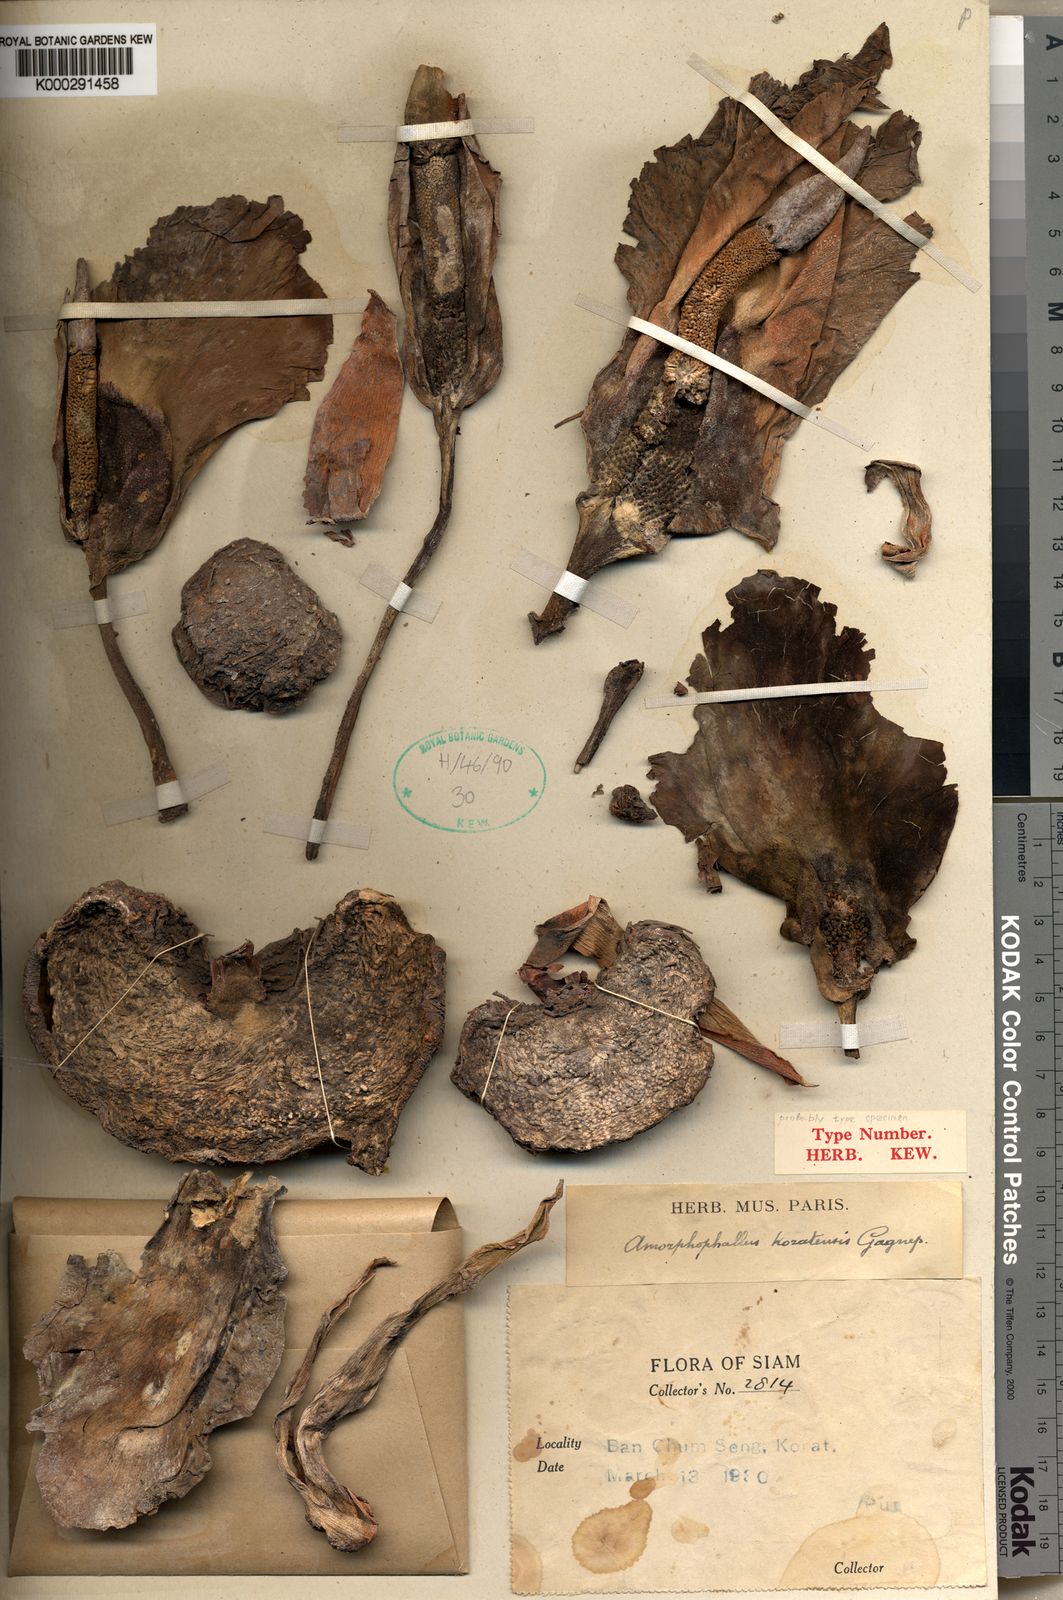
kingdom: Plantae
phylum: Tracheophyta
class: Liliopsida
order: Alismatales
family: Araceae
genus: Amorphophallus
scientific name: Amorphophallus koratensis
